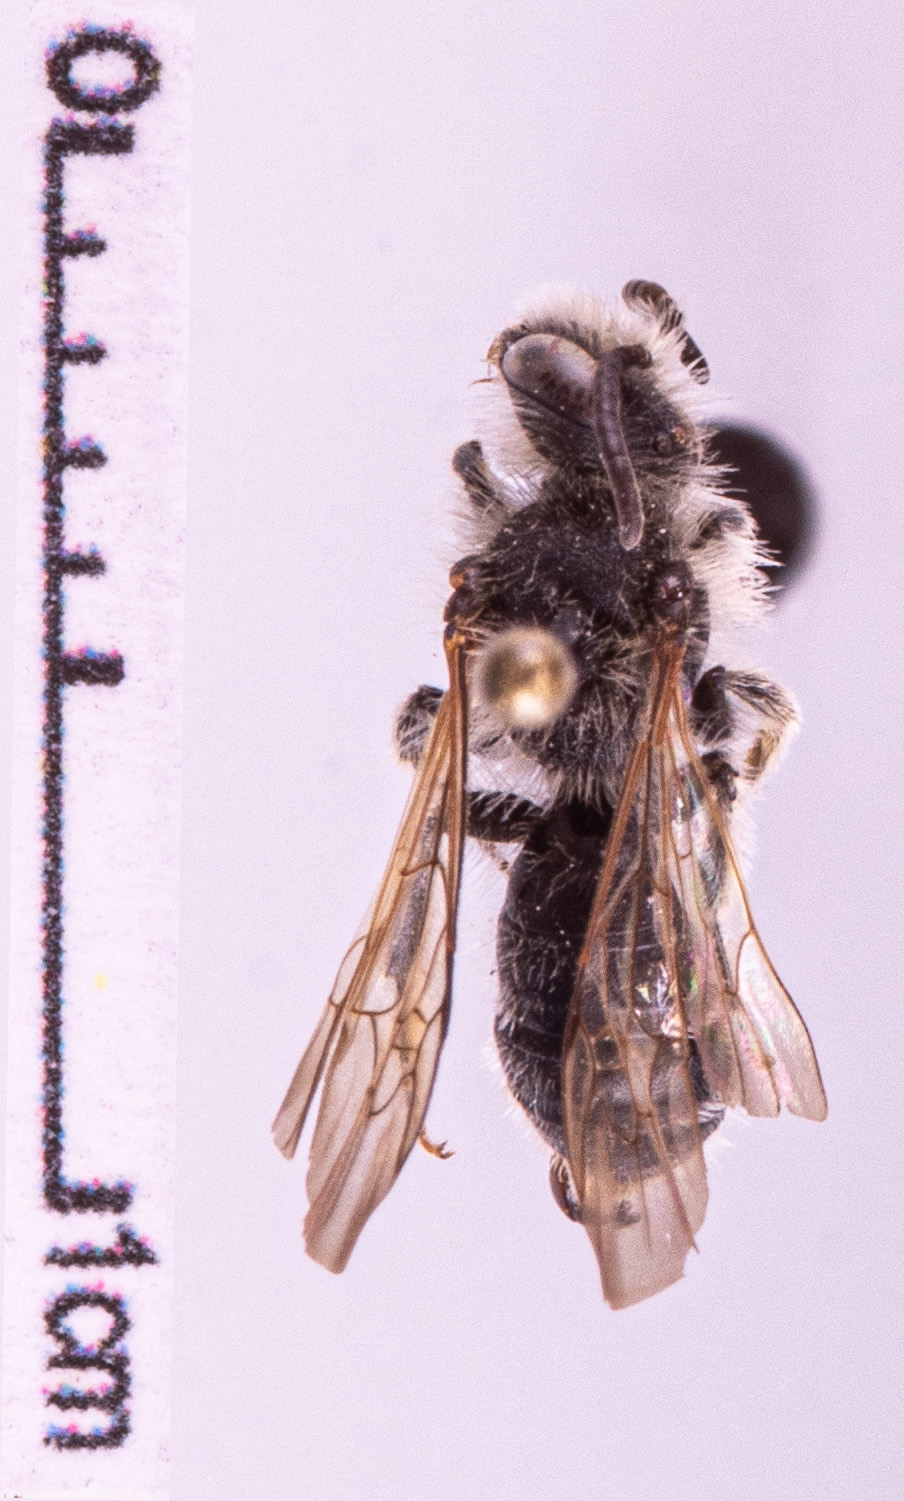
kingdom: Animalia
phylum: Arthropoda
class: Insecta
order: Hymenoptera
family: Andrenidae
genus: Andrena
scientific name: Andrena proxima
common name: Broad-faced mining bee
